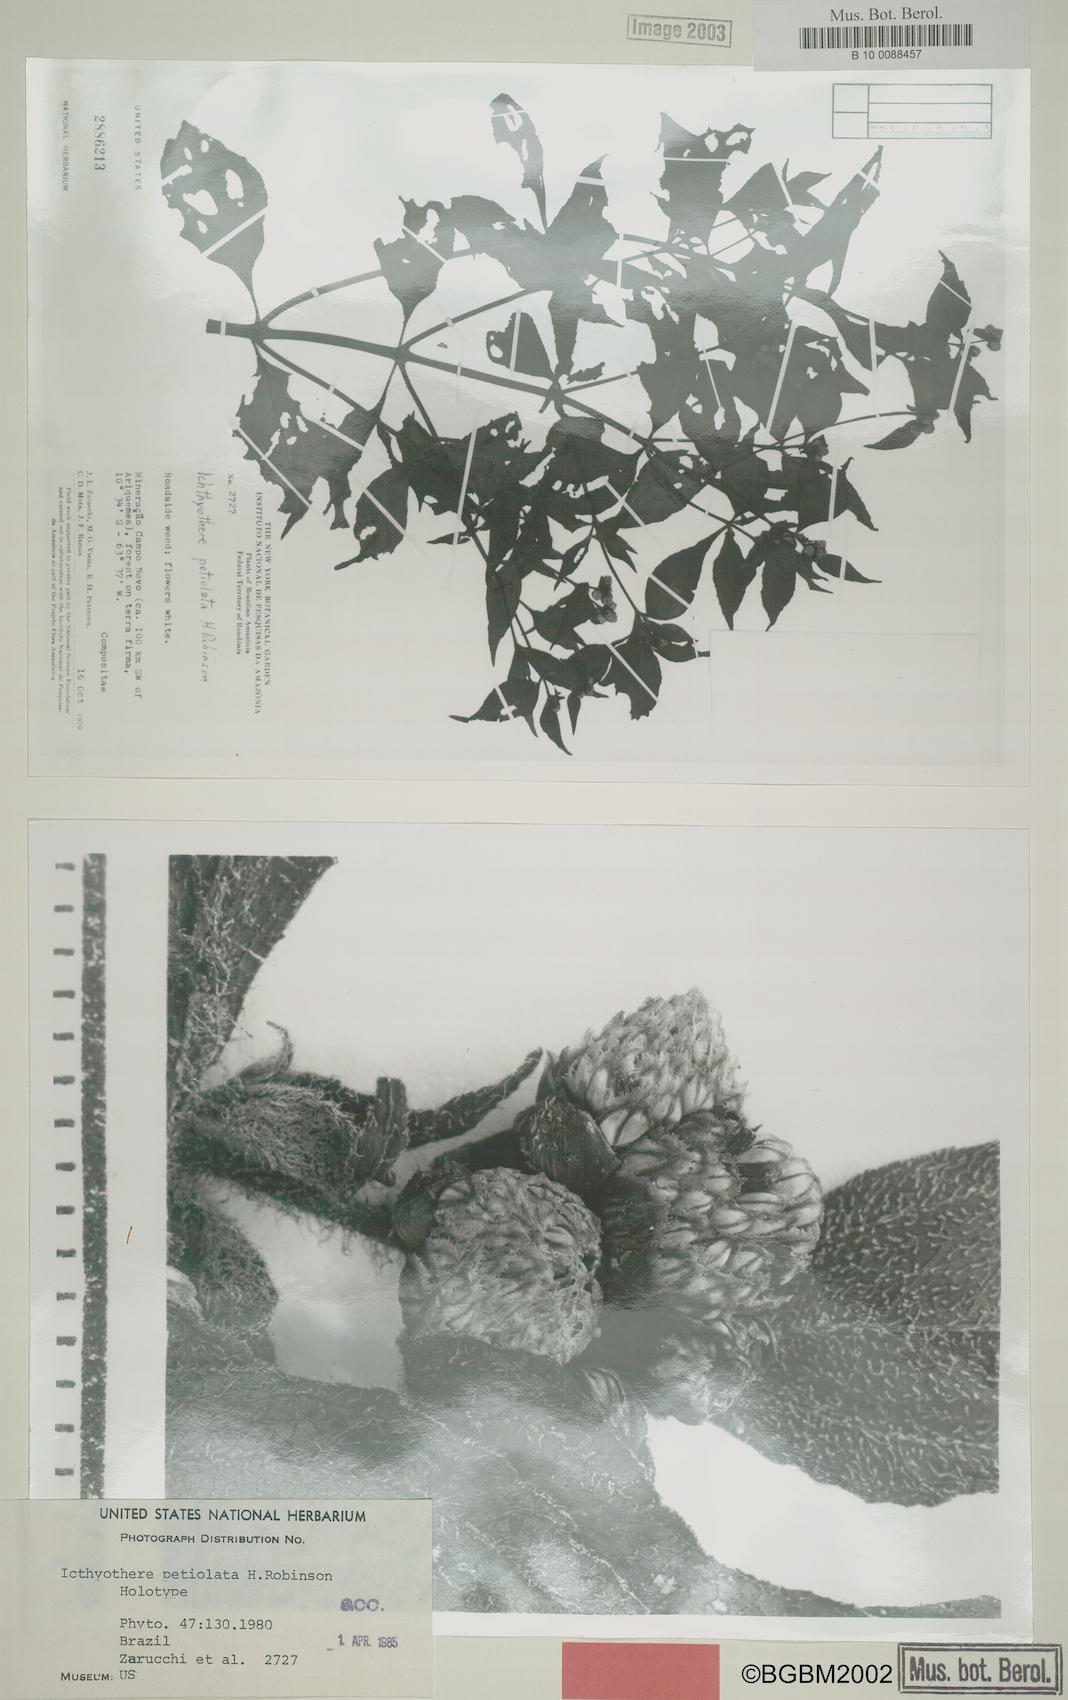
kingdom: Plantae
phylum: Tracheophyta
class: Magnoliopsida
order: Asterales
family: Asteraceae
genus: Icthyothere
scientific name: Icthyothere
